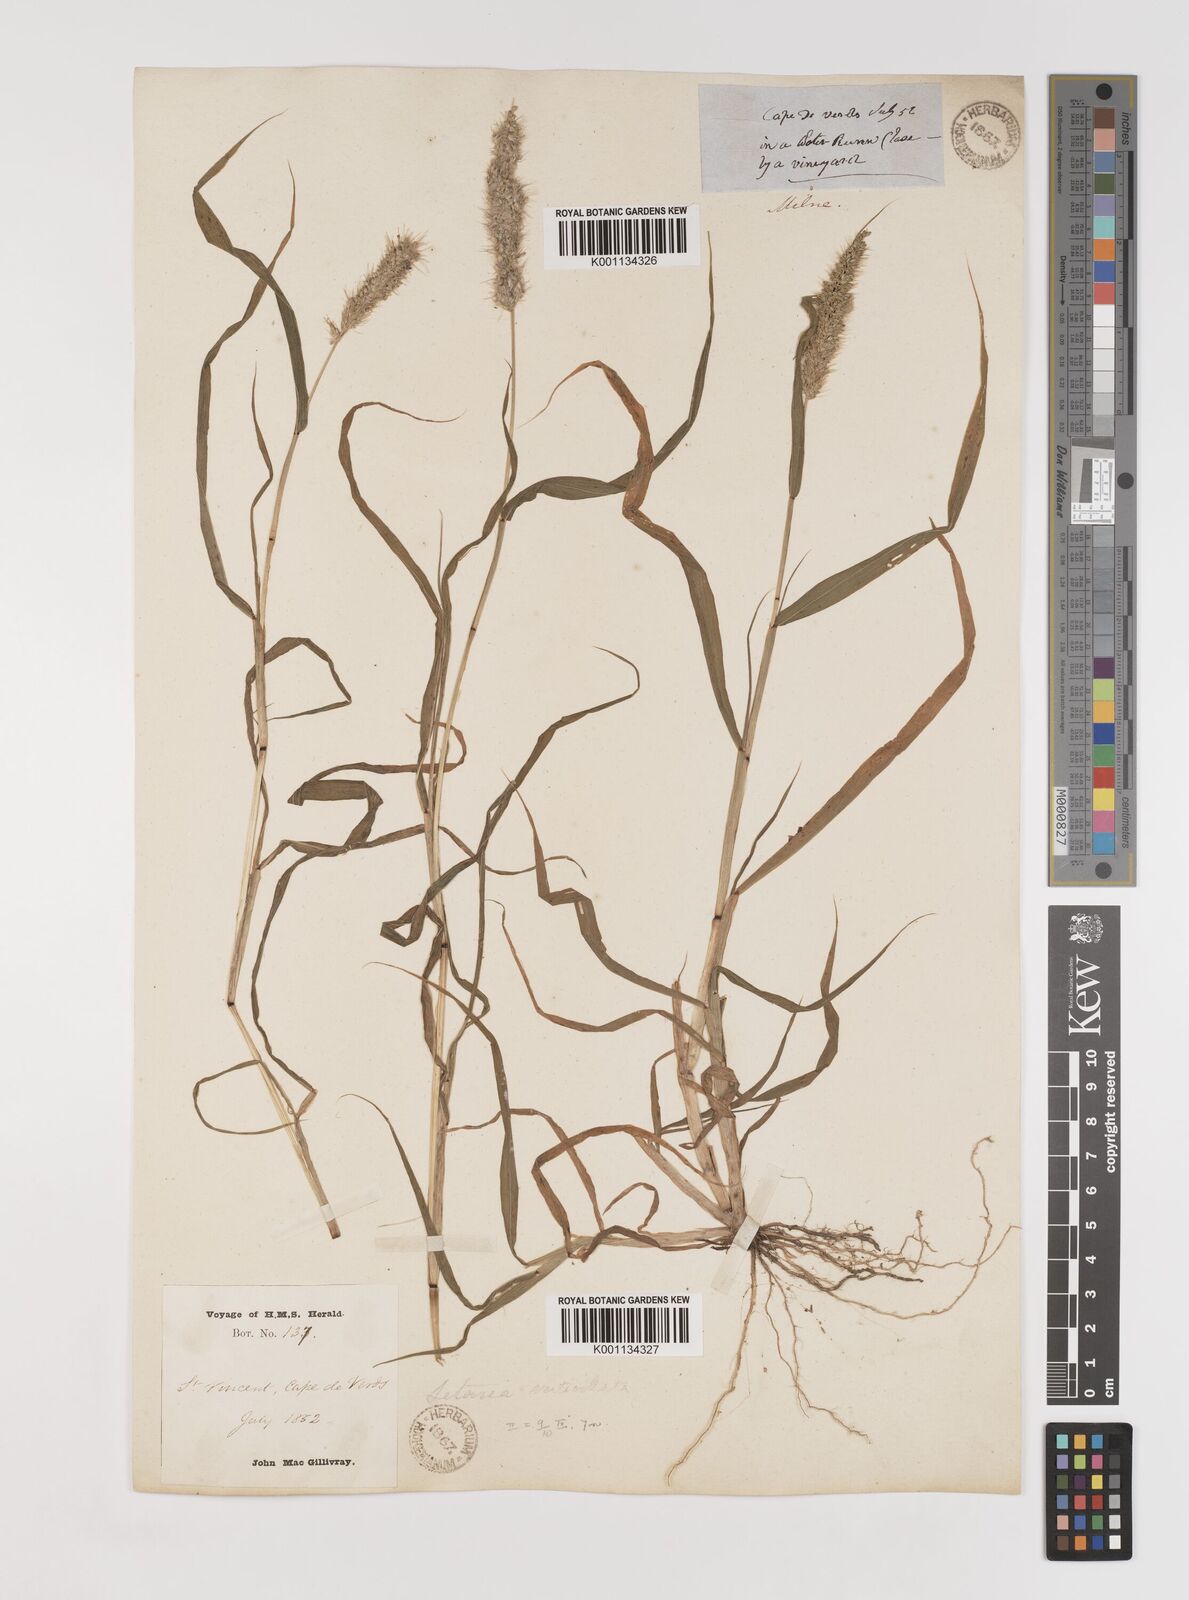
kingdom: Plantae
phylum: Tracheophyta
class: Liliopsida
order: Poales
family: Poaceae
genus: Setaria
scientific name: Setaria verticillata
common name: Hooked bristlegrass
